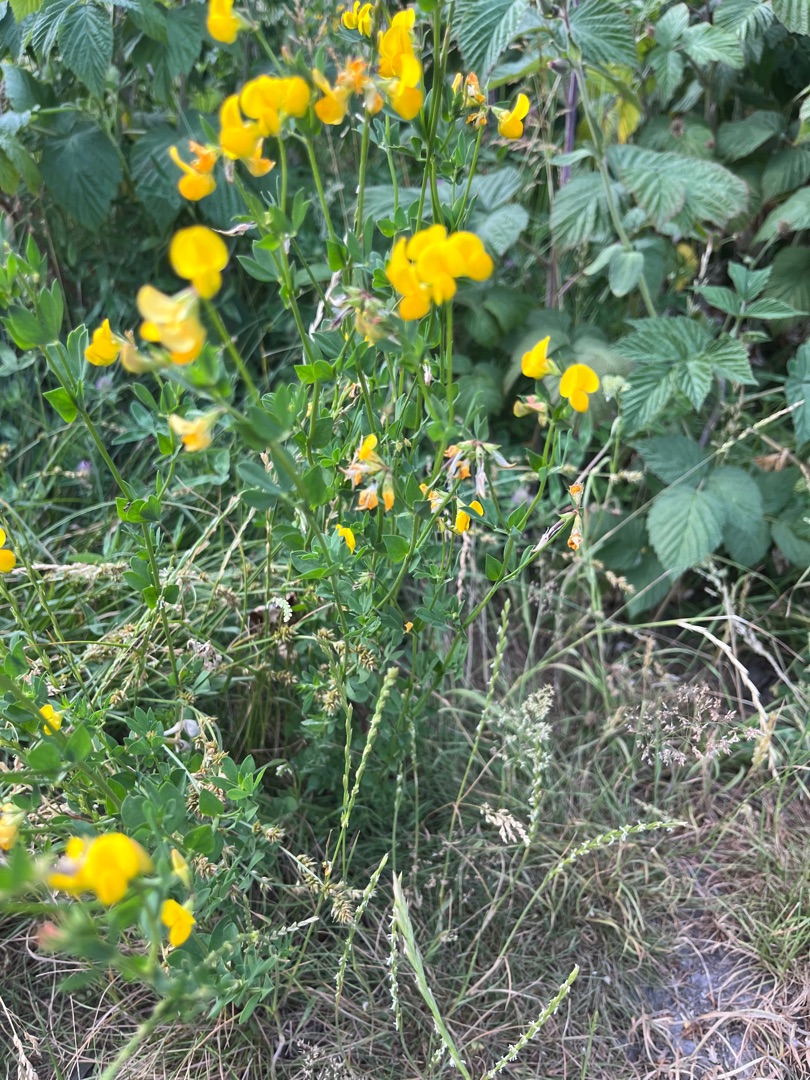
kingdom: Plantae
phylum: Tracheophyta
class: Magnoliopsida
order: Fabales
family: Fabaceae
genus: Lotus
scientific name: Lotus corniculatus
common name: Almindelig kællingetand
